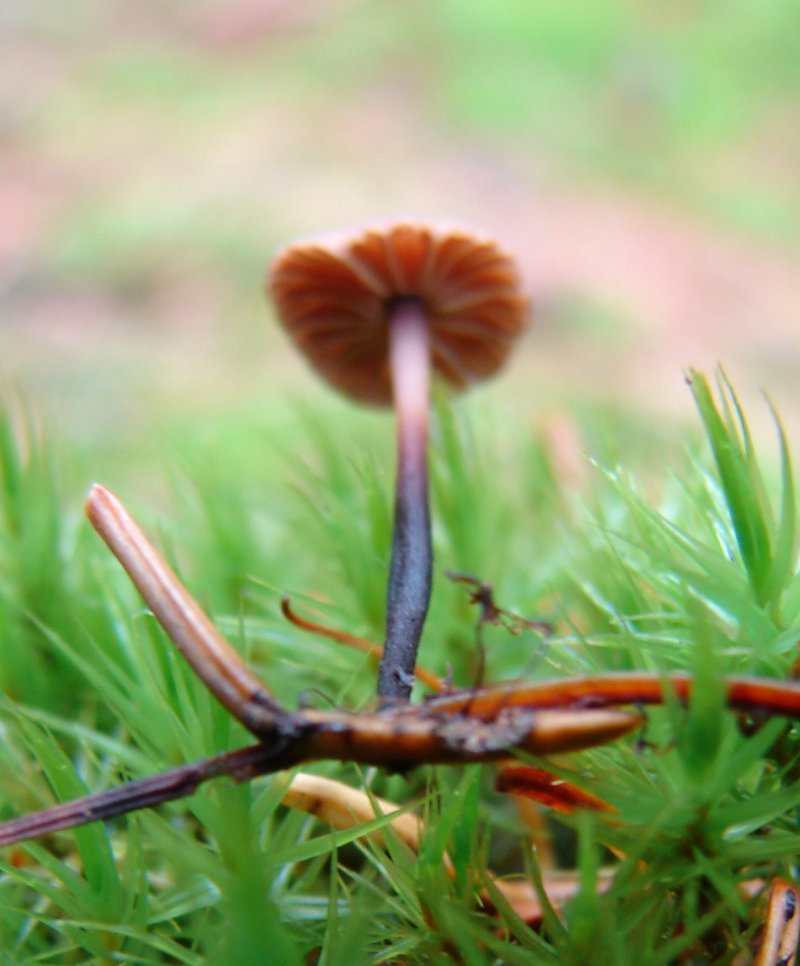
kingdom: Fungi
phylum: Basidiomycota
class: Agaricomycetes
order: Agaricales
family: Omphalotaceae
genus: Paragymnopus
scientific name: Paragymnopus perforans
